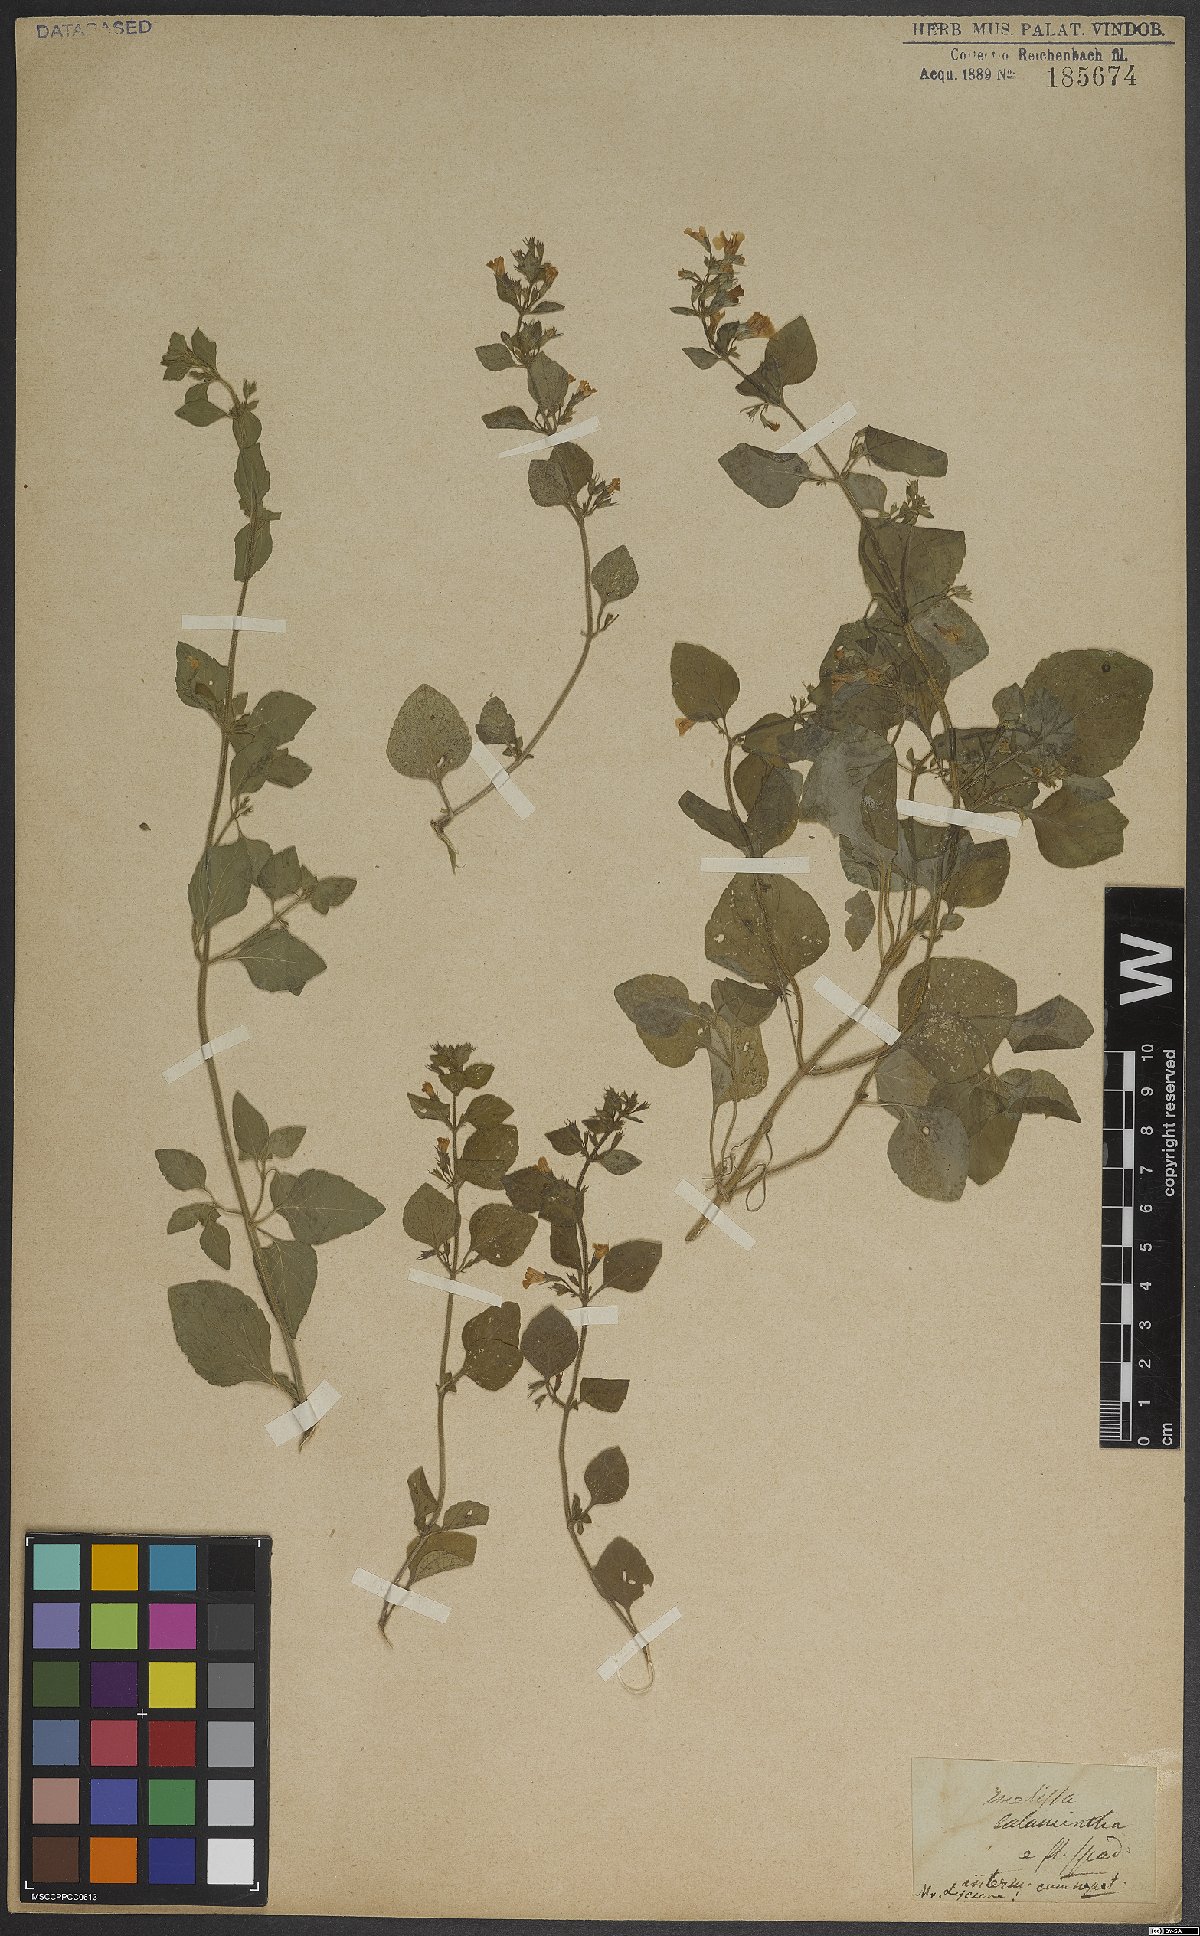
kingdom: Plantae
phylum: Tracheophyta
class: Magnoliopsida
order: Lamiales
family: Lamiaceae
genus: Clinopodium
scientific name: Clinopodium menthifolium
